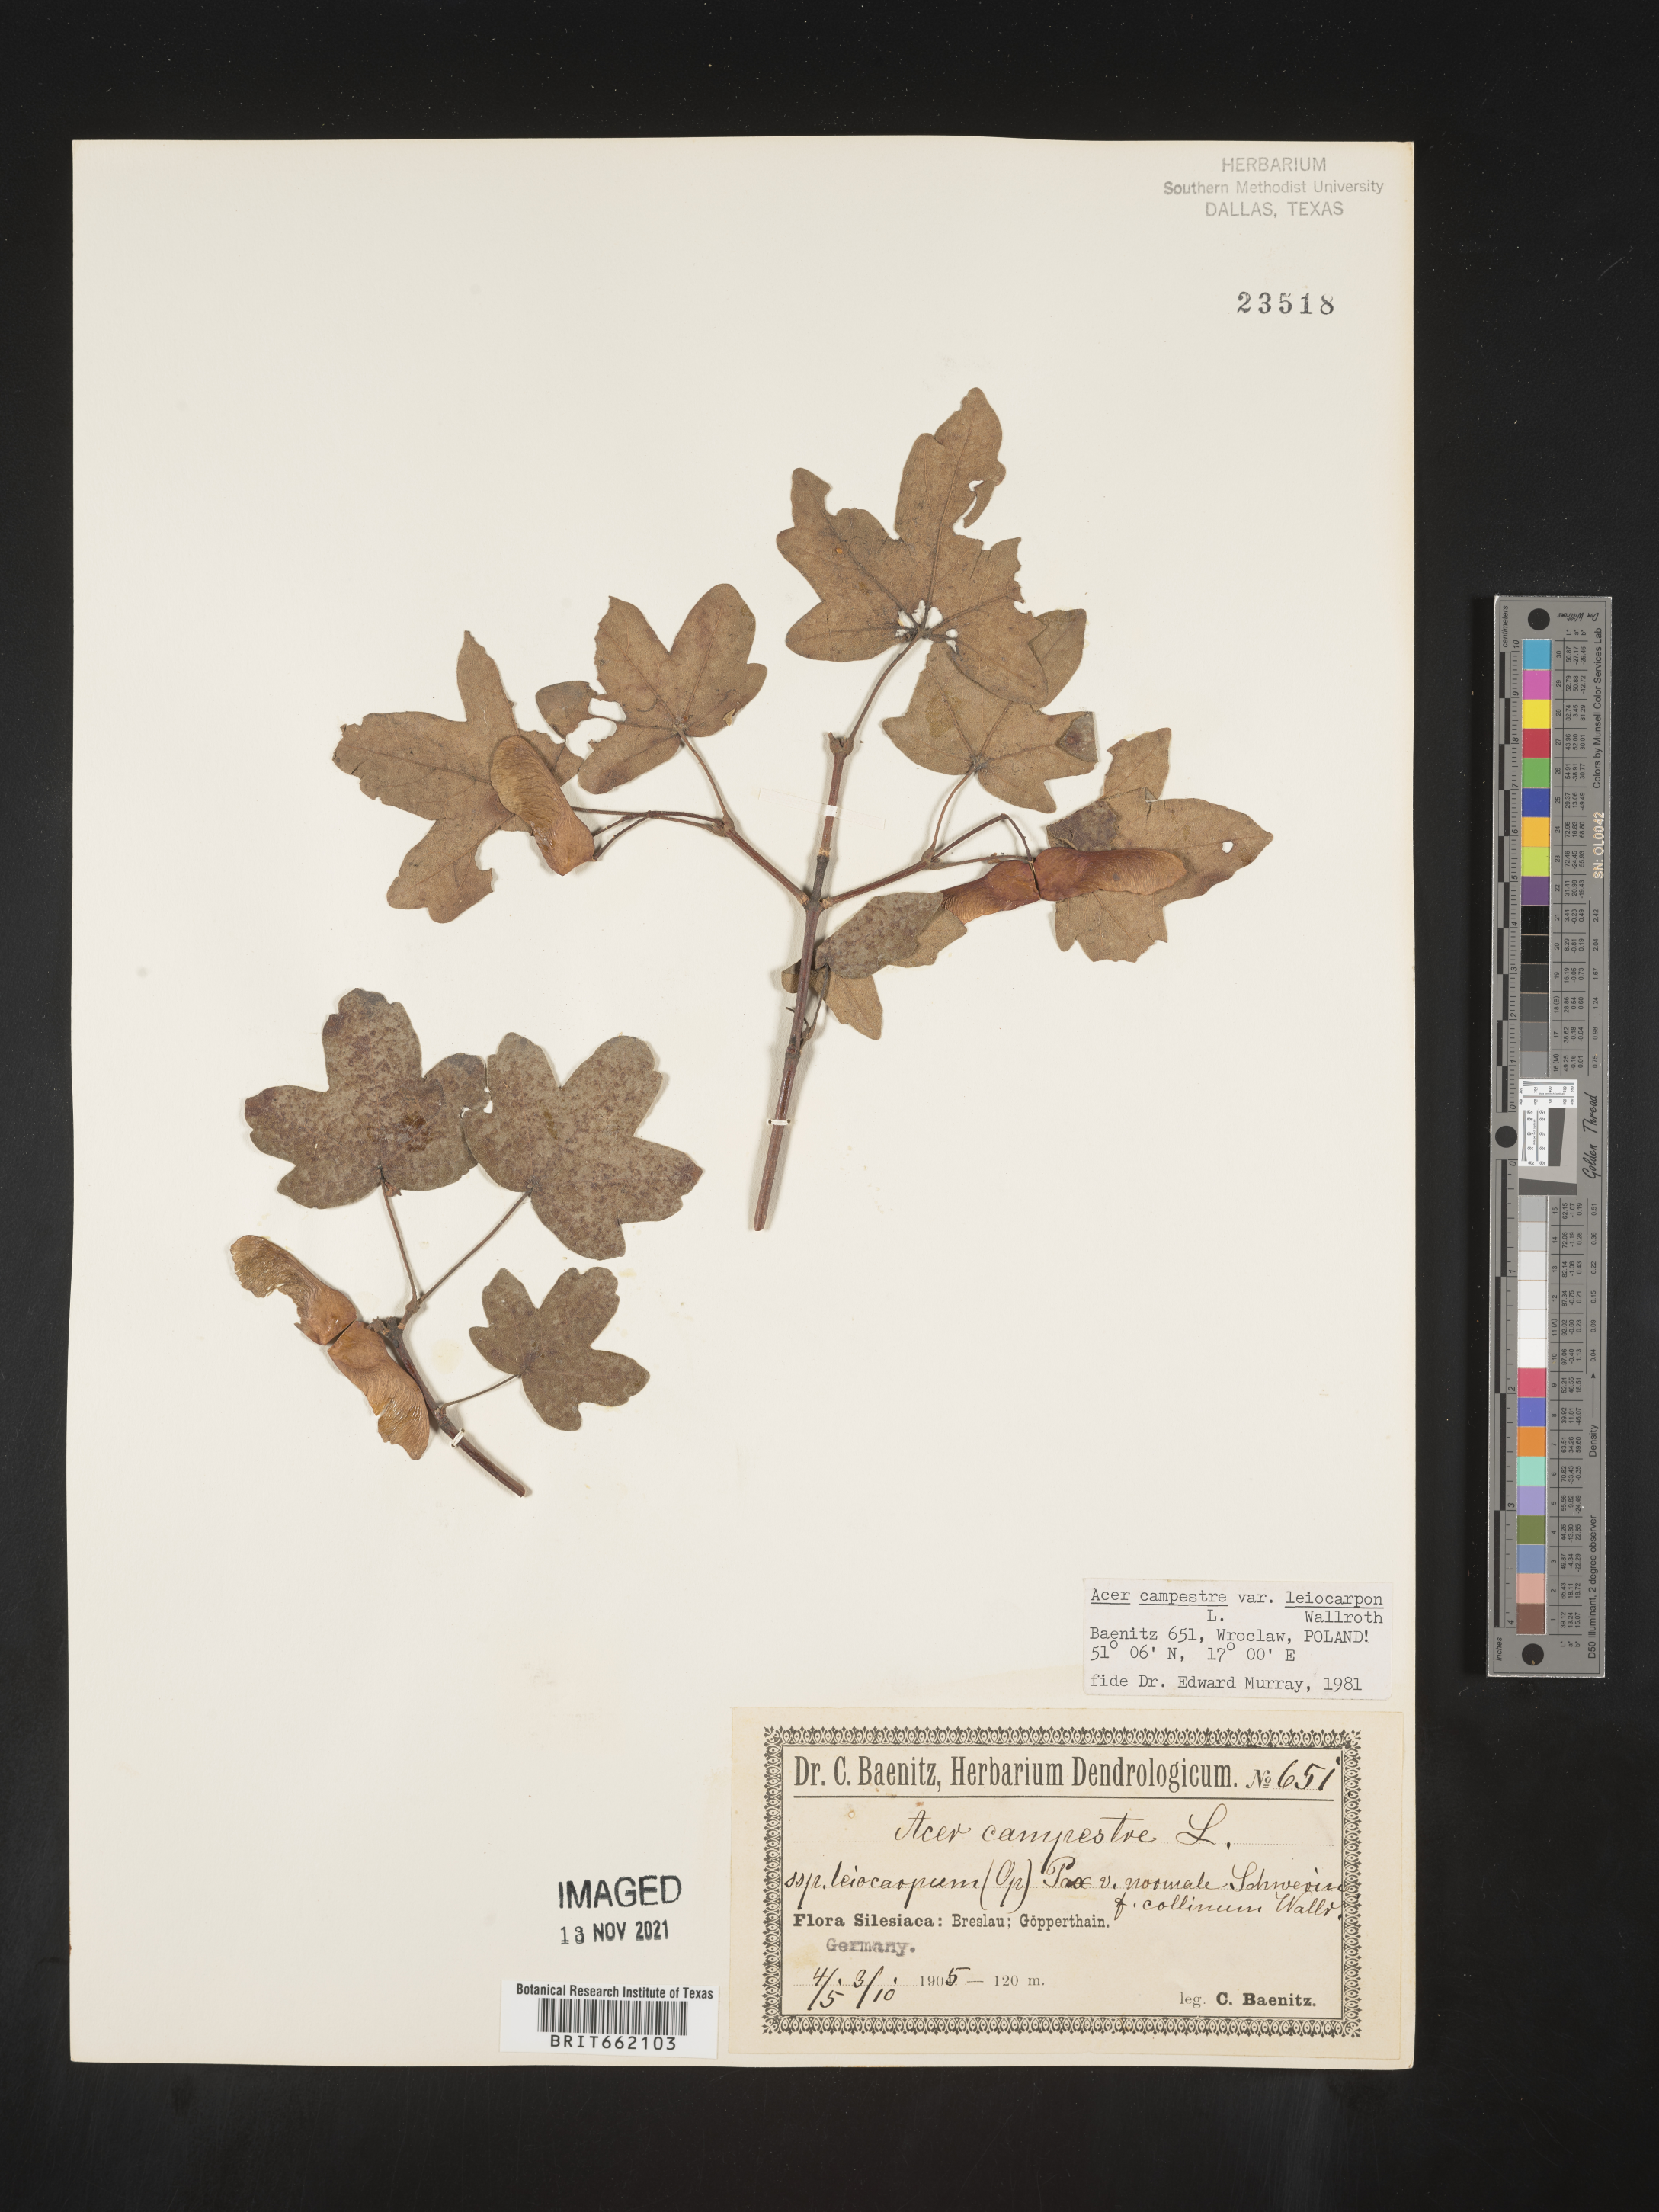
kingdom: Plantae
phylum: Tracheophyta
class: Magnoliopsida
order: Sapindales
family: Sapindaceae
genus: Acer
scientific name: Acer
